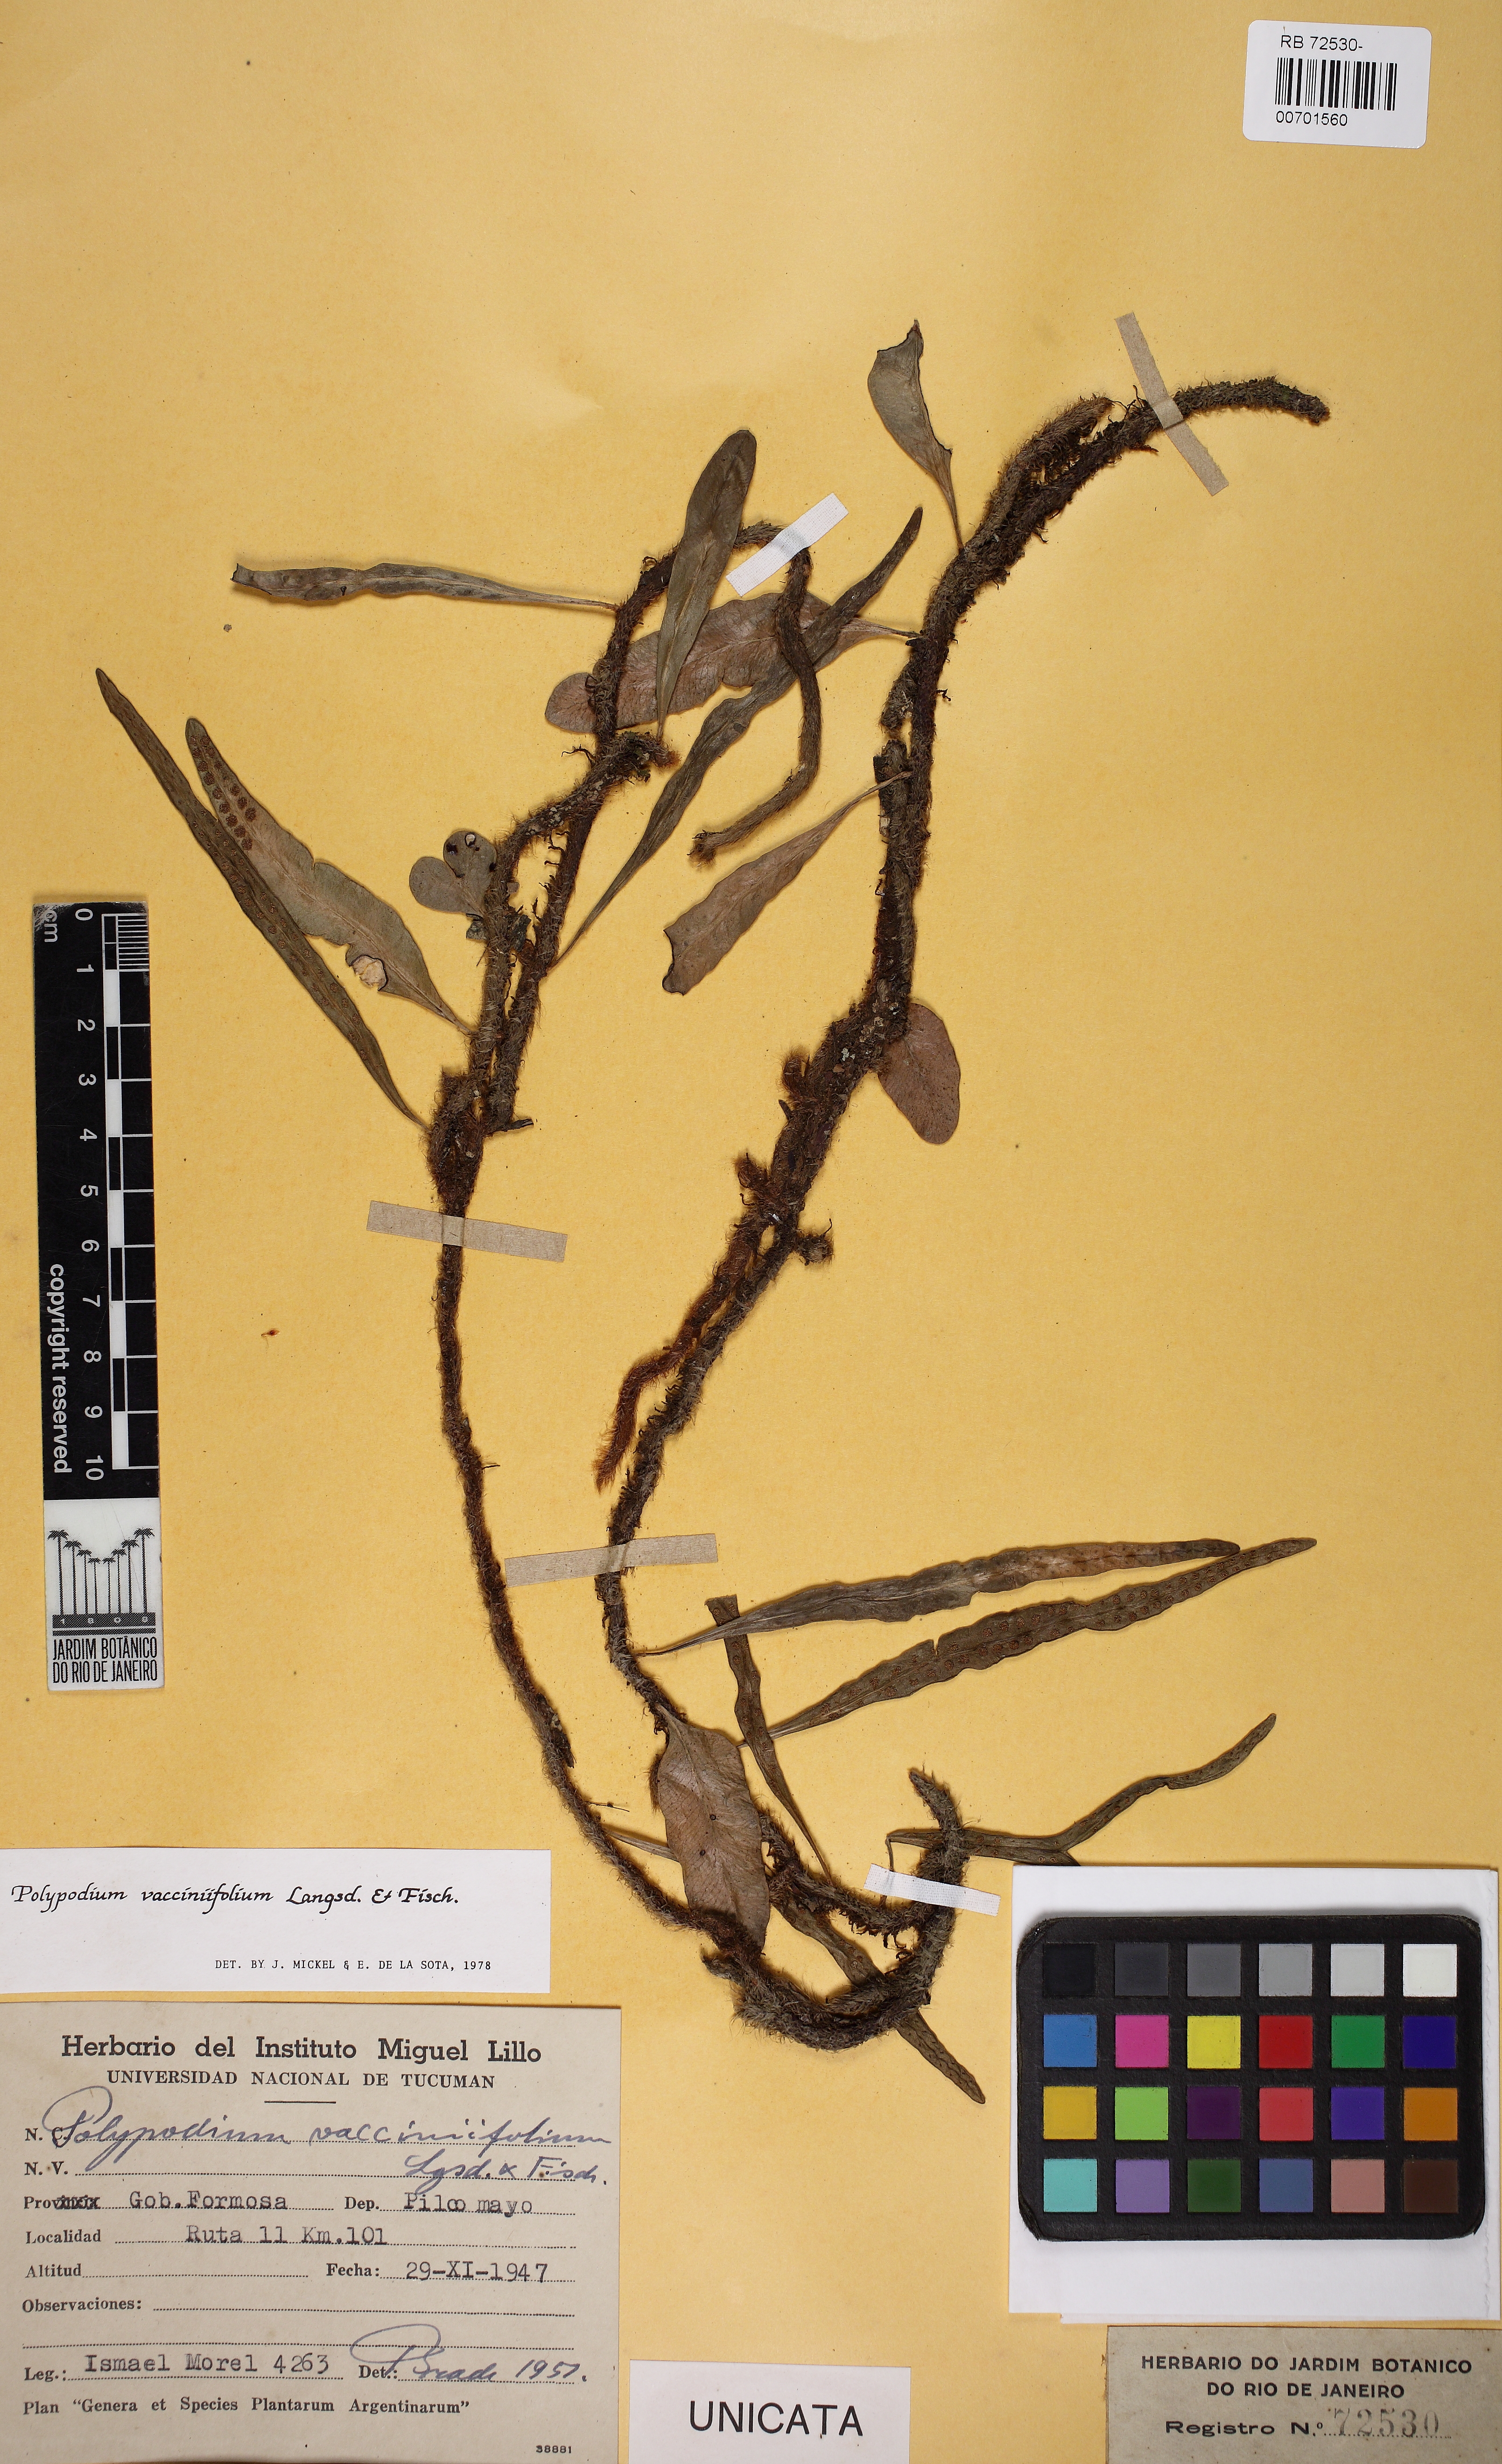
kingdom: Plantae
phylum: Tracheophyta
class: Polypodiopsida
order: Polypodiales
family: Polypodiaceae
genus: Microgramma
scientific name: Microgramma vaccinifolia
